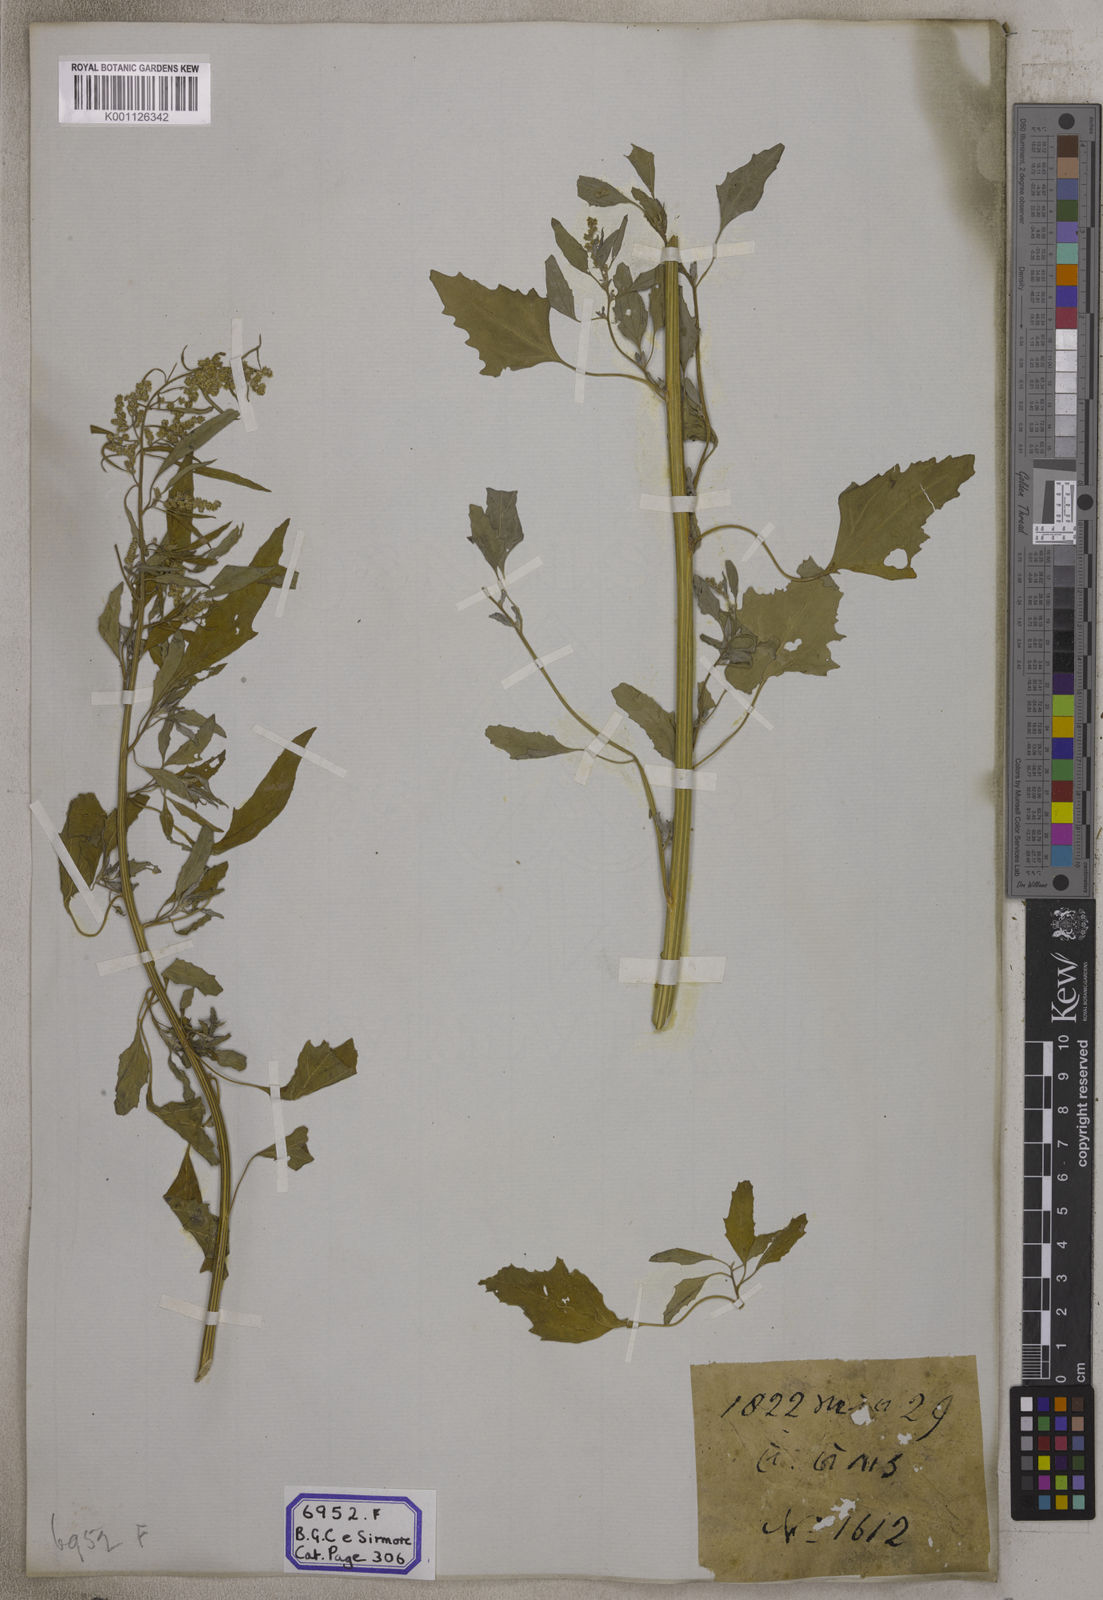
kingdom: Plantae
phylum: Tracheophyta
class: Magnoliopsida
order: Caryophyllales
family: Amaranthaceae
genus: Chenopodium
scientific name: Chenopodium album
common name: Fat-hen
